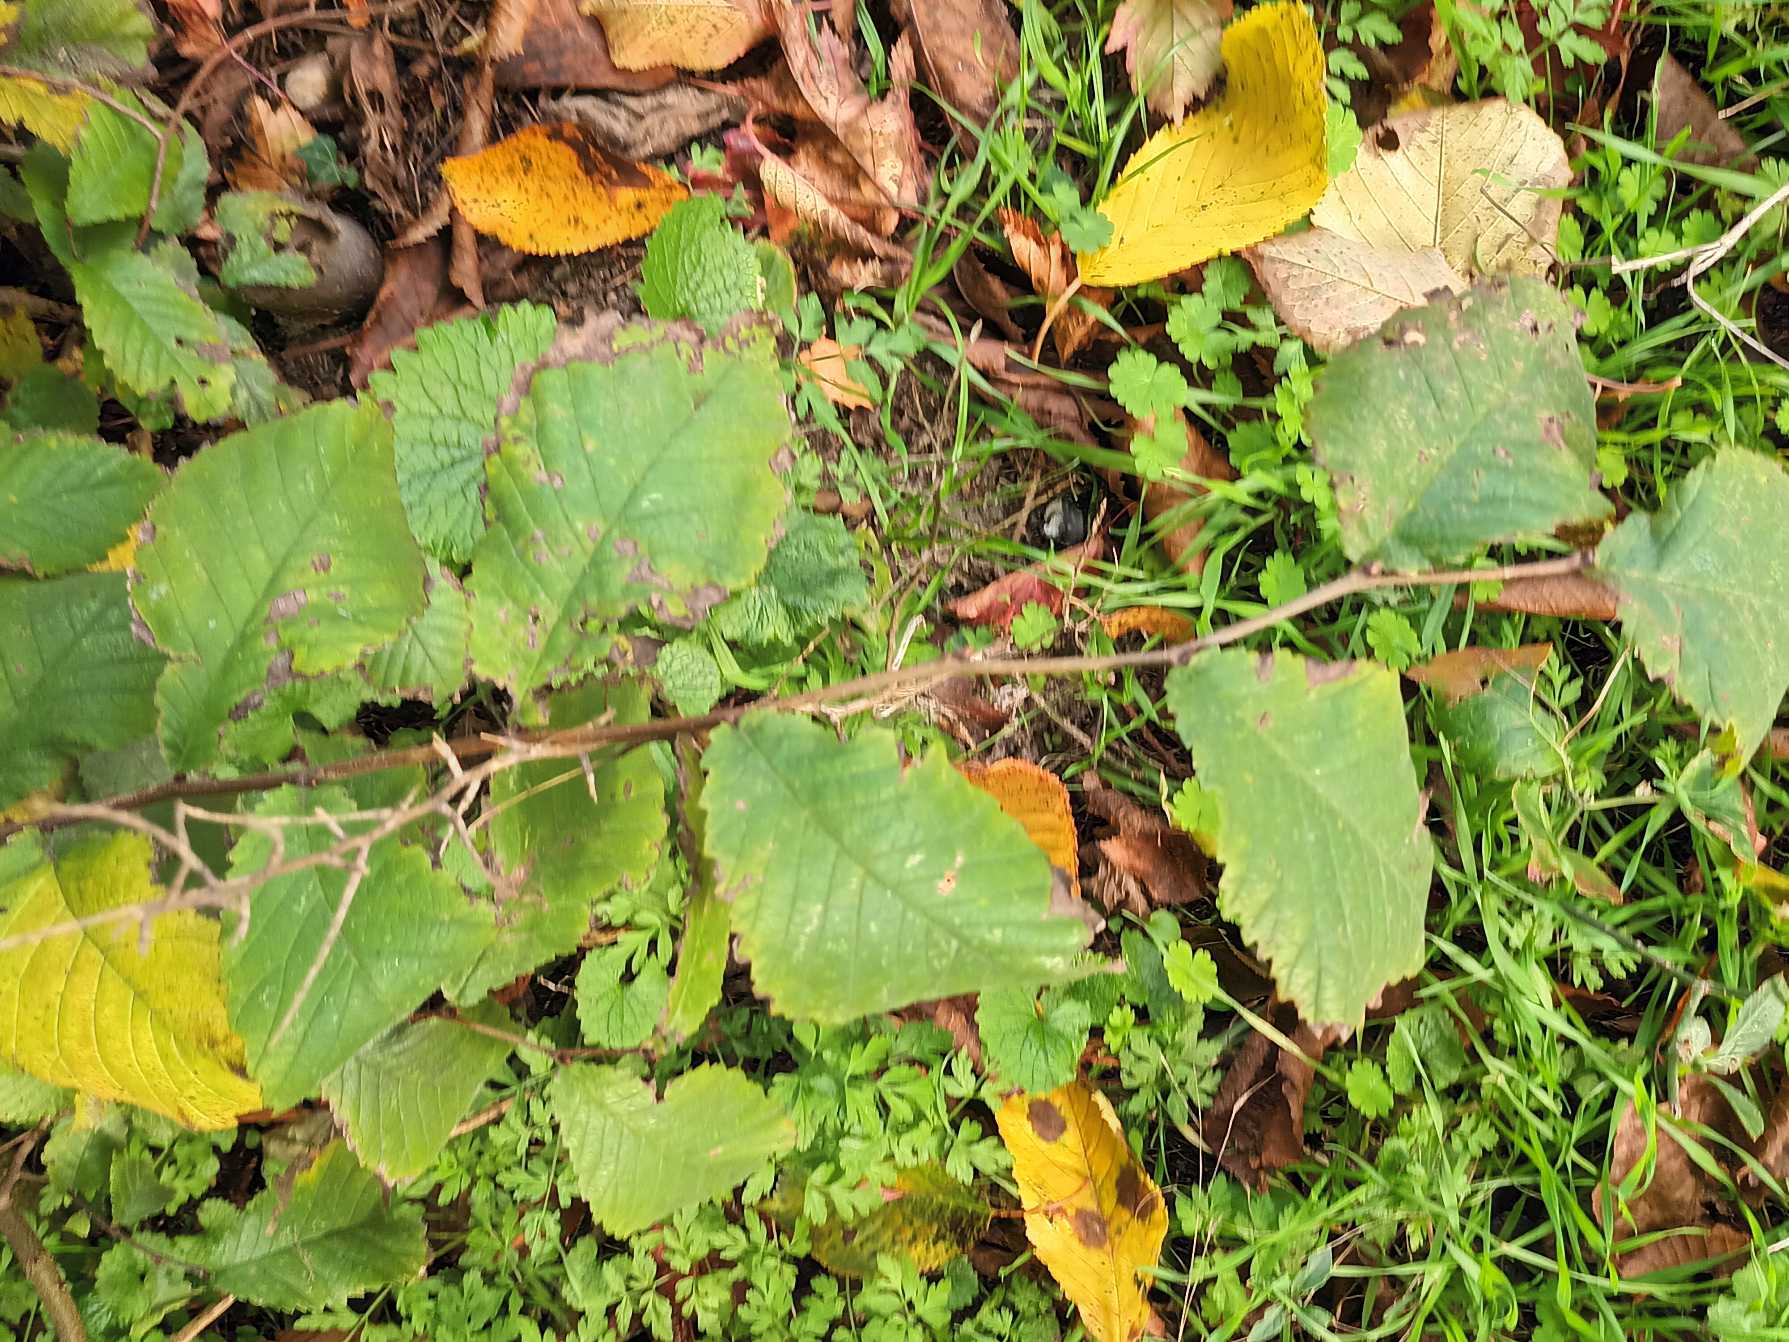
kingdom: Plantae
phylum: Tracheophyta
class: Magnoliopsida
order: Rosales
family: Ulmaceae
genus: Ulmus
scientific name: Ulmus glabra
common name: Skov-elm/storbladet elm
